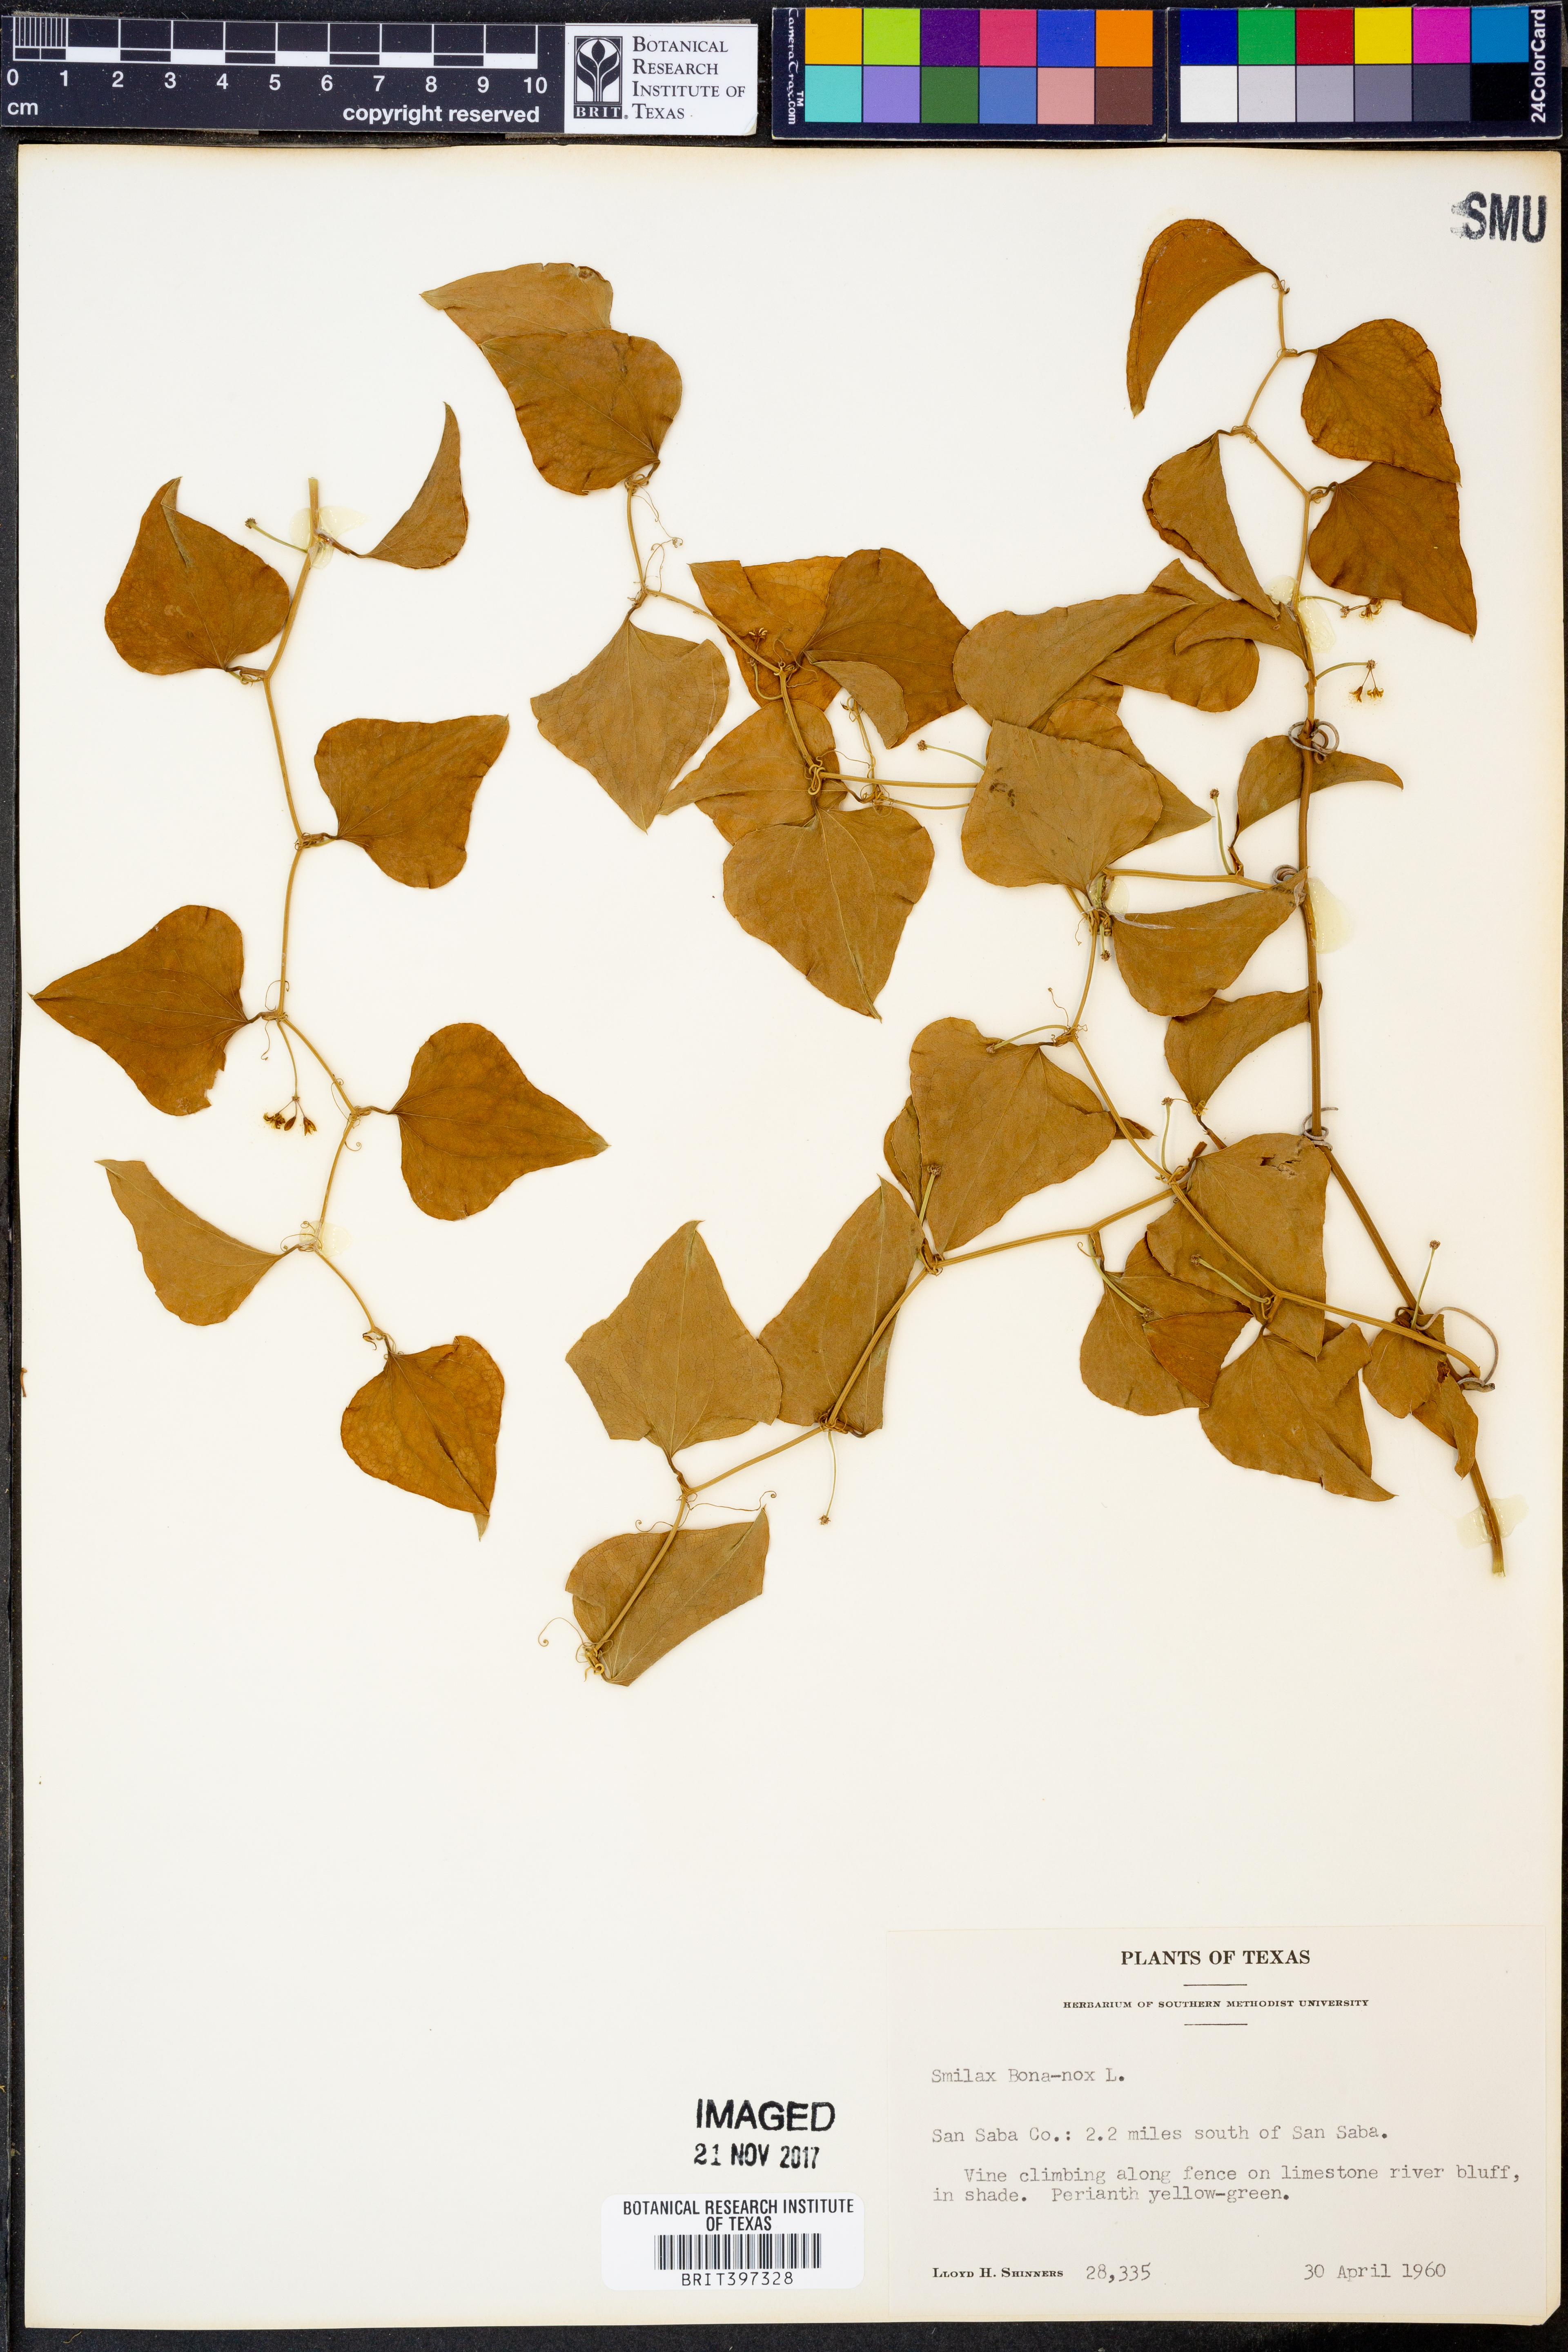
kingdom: Plantae
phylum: Tracheophyta
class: Liliopsida
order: Liliales
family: Smilacaceae
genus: Smilax
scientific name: Smilax bona-nox
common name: Catbrier
